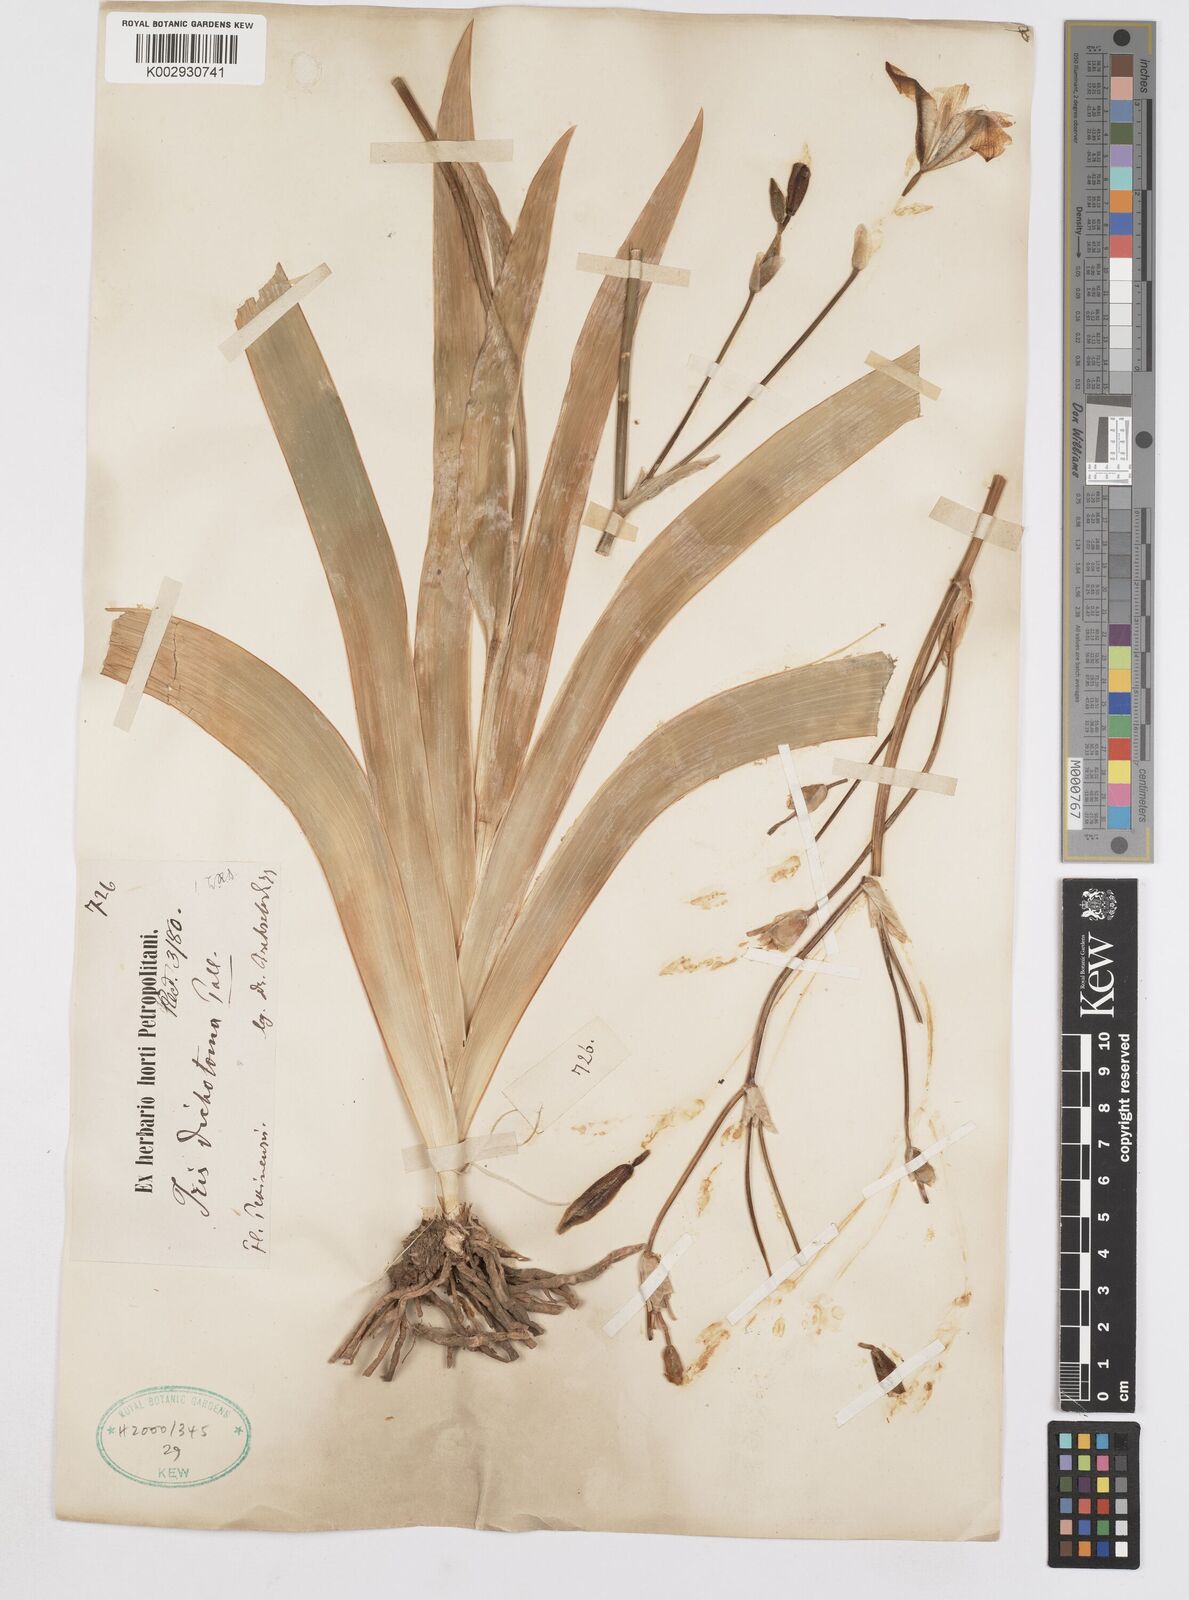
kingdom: Plantae
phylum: Tracheophyta
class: Liliopsida
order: Asparagales
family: Iridaceae
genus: Iris
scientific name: Iris dichotoma
